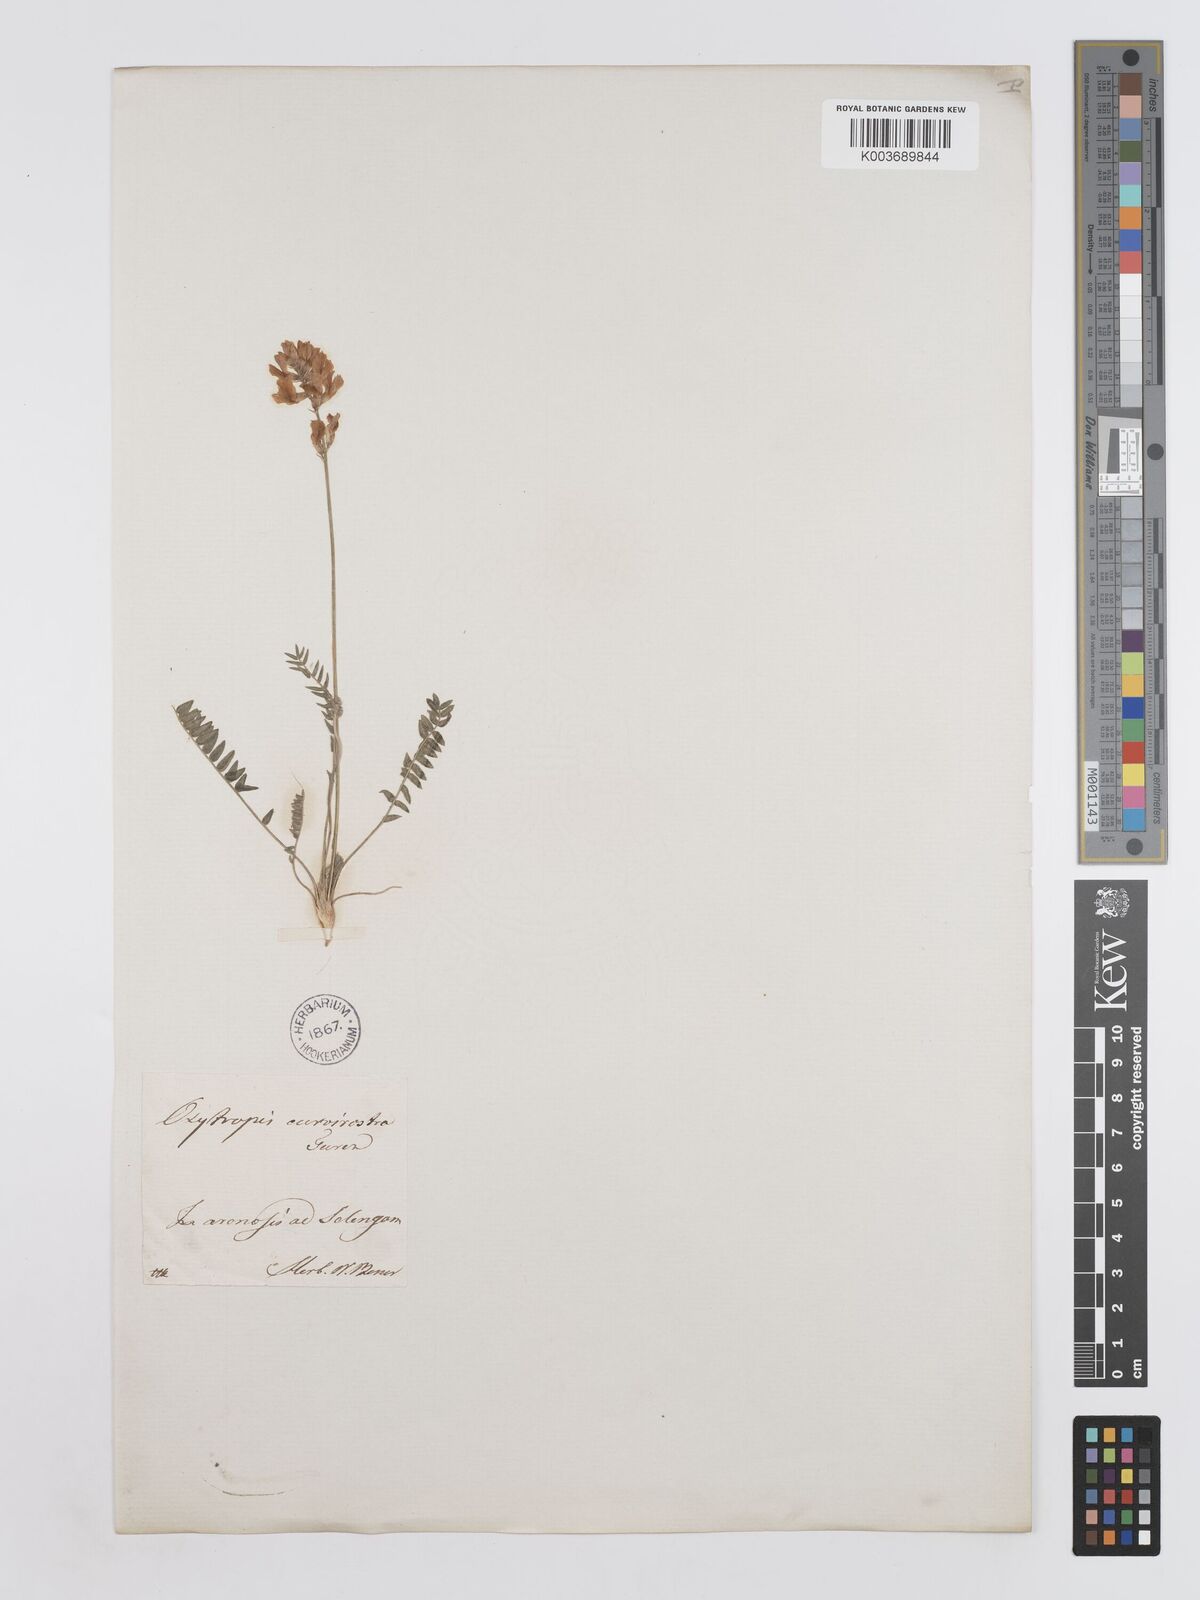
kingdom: Plantae
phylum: Tracheophyta
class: Magnoliopsida
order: Fabales
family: Fabaceae
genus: Oxytropis
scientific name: Oxytropis
